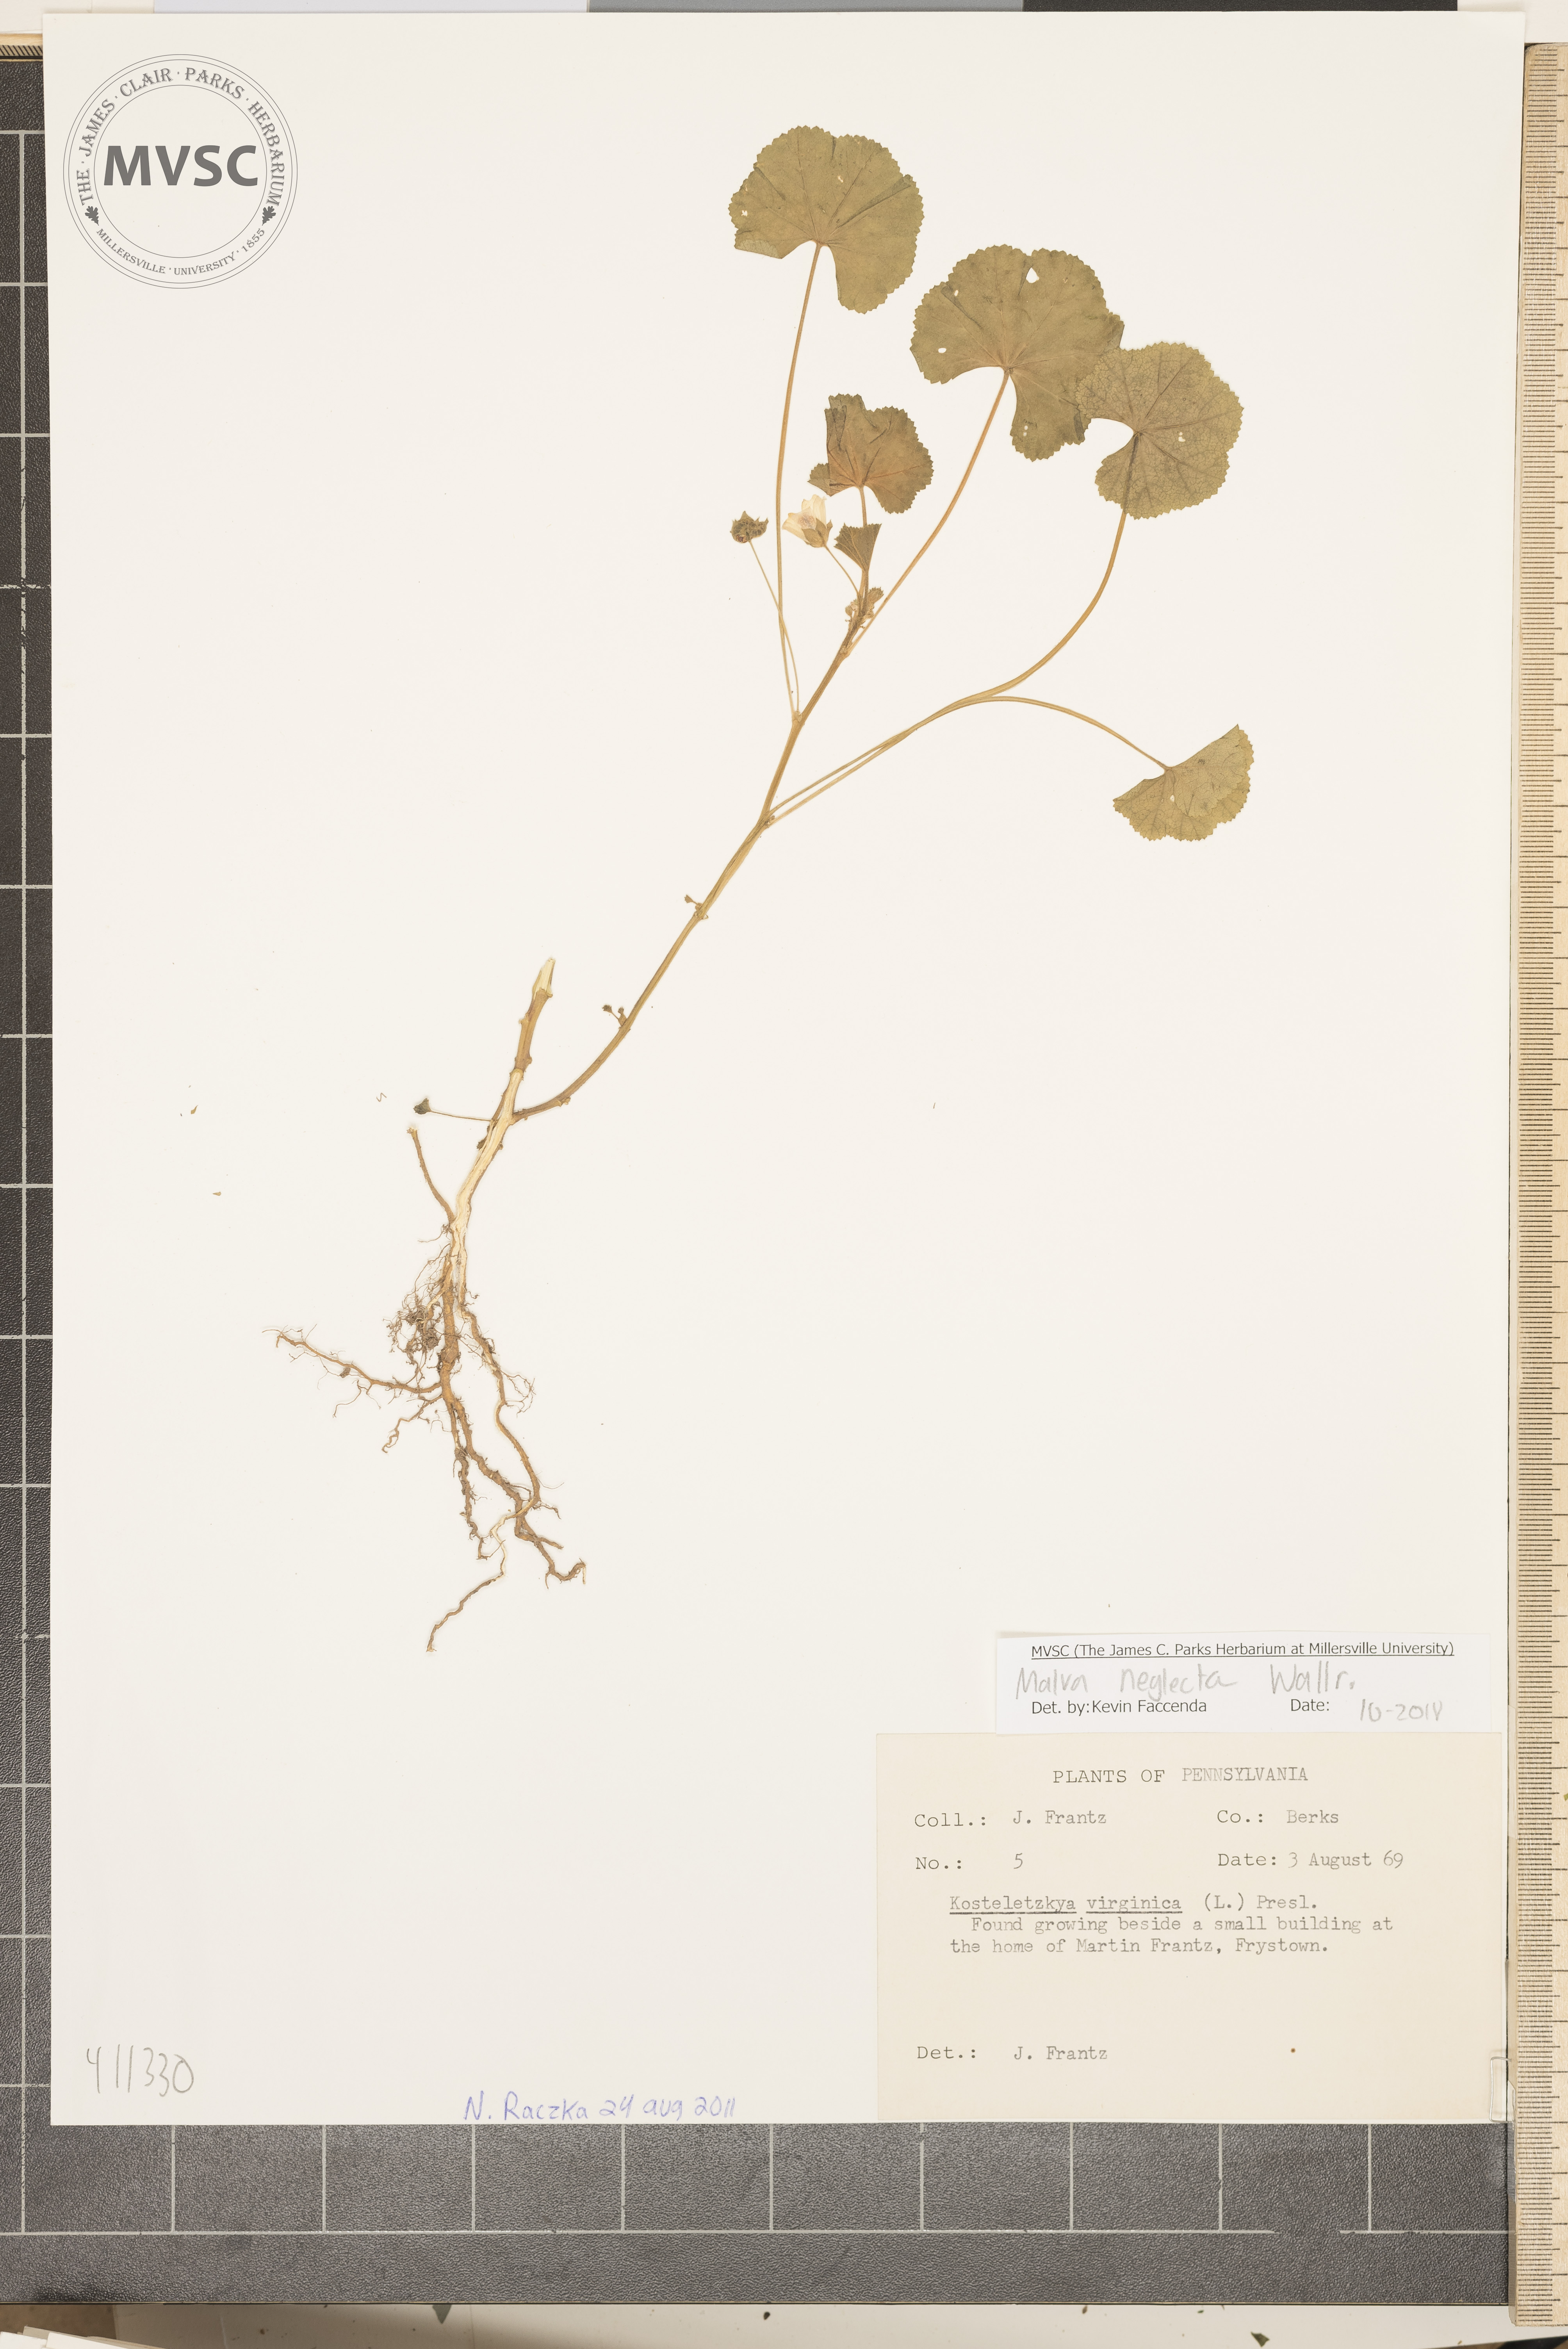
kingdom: Plantae
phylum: Tracheophyta
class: Magnoliopsida
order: Malvales
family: Malvaceae
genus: Malva
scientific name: Malva neglecta
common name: Common mallow
